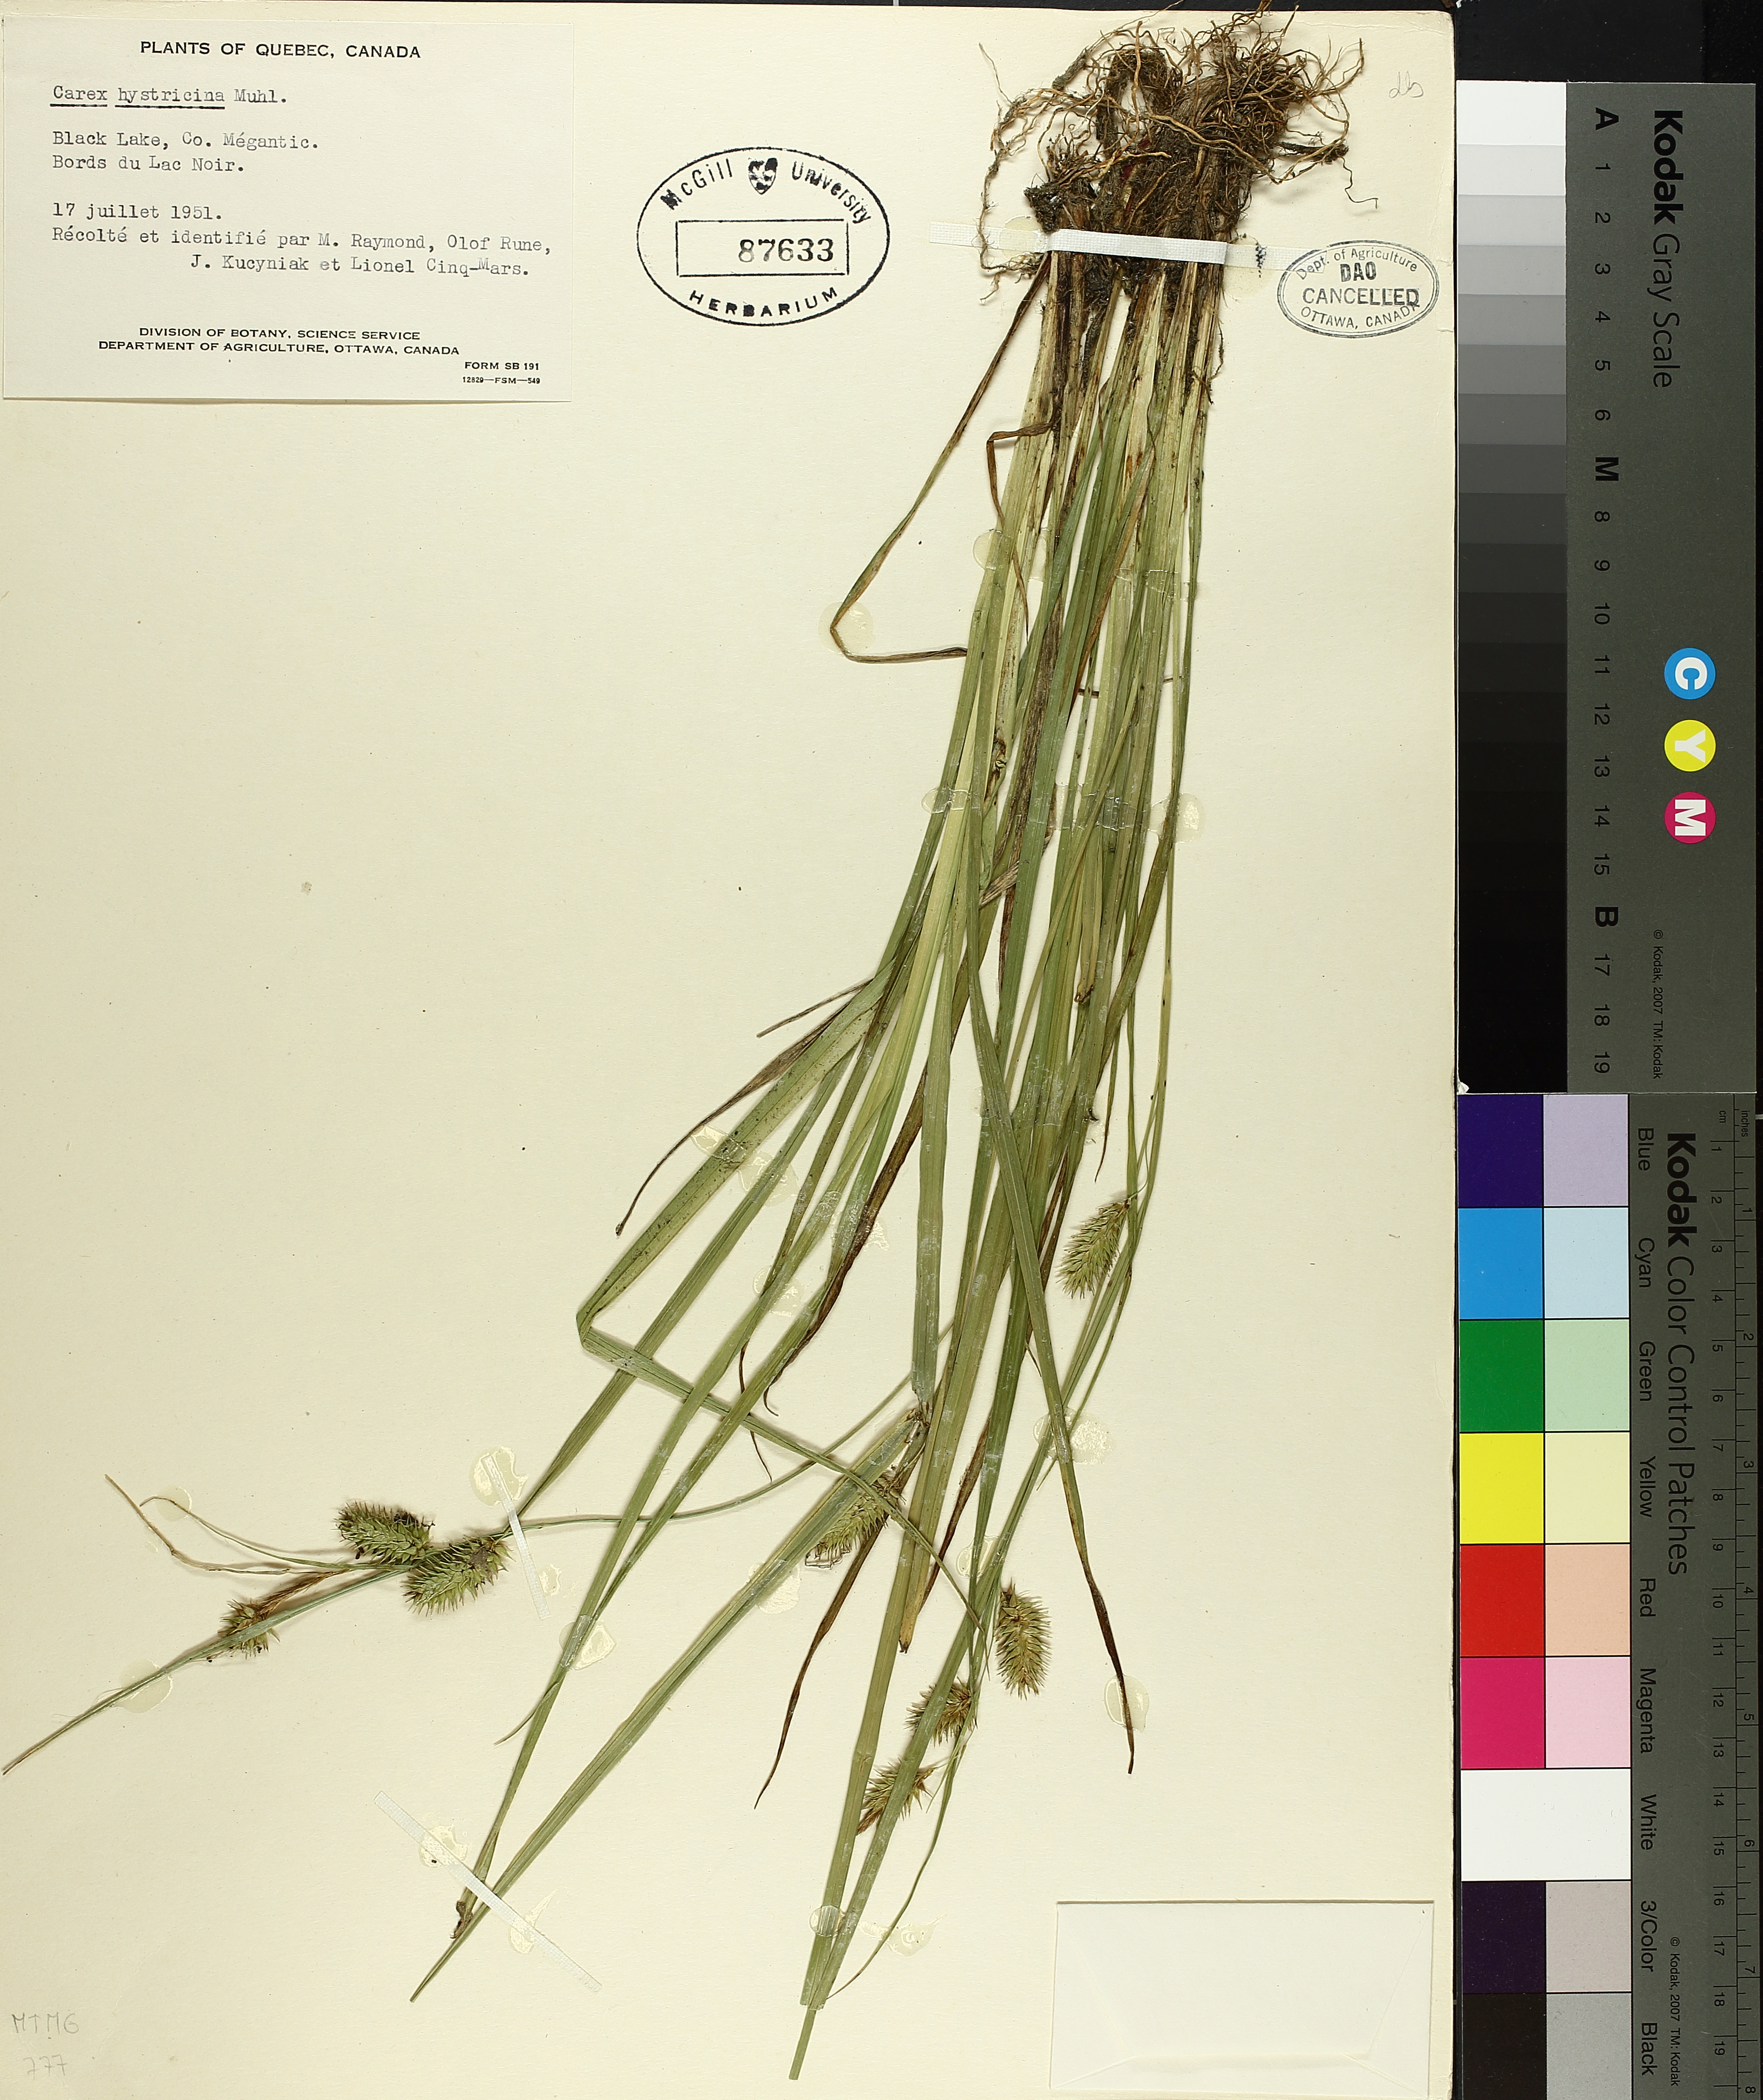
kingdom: Plantae
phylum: Tracheophyta
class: Liliopsida
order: Poales
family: Cyperaceae
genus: Carex
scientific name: Carex crinita
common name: Fringed sedge
